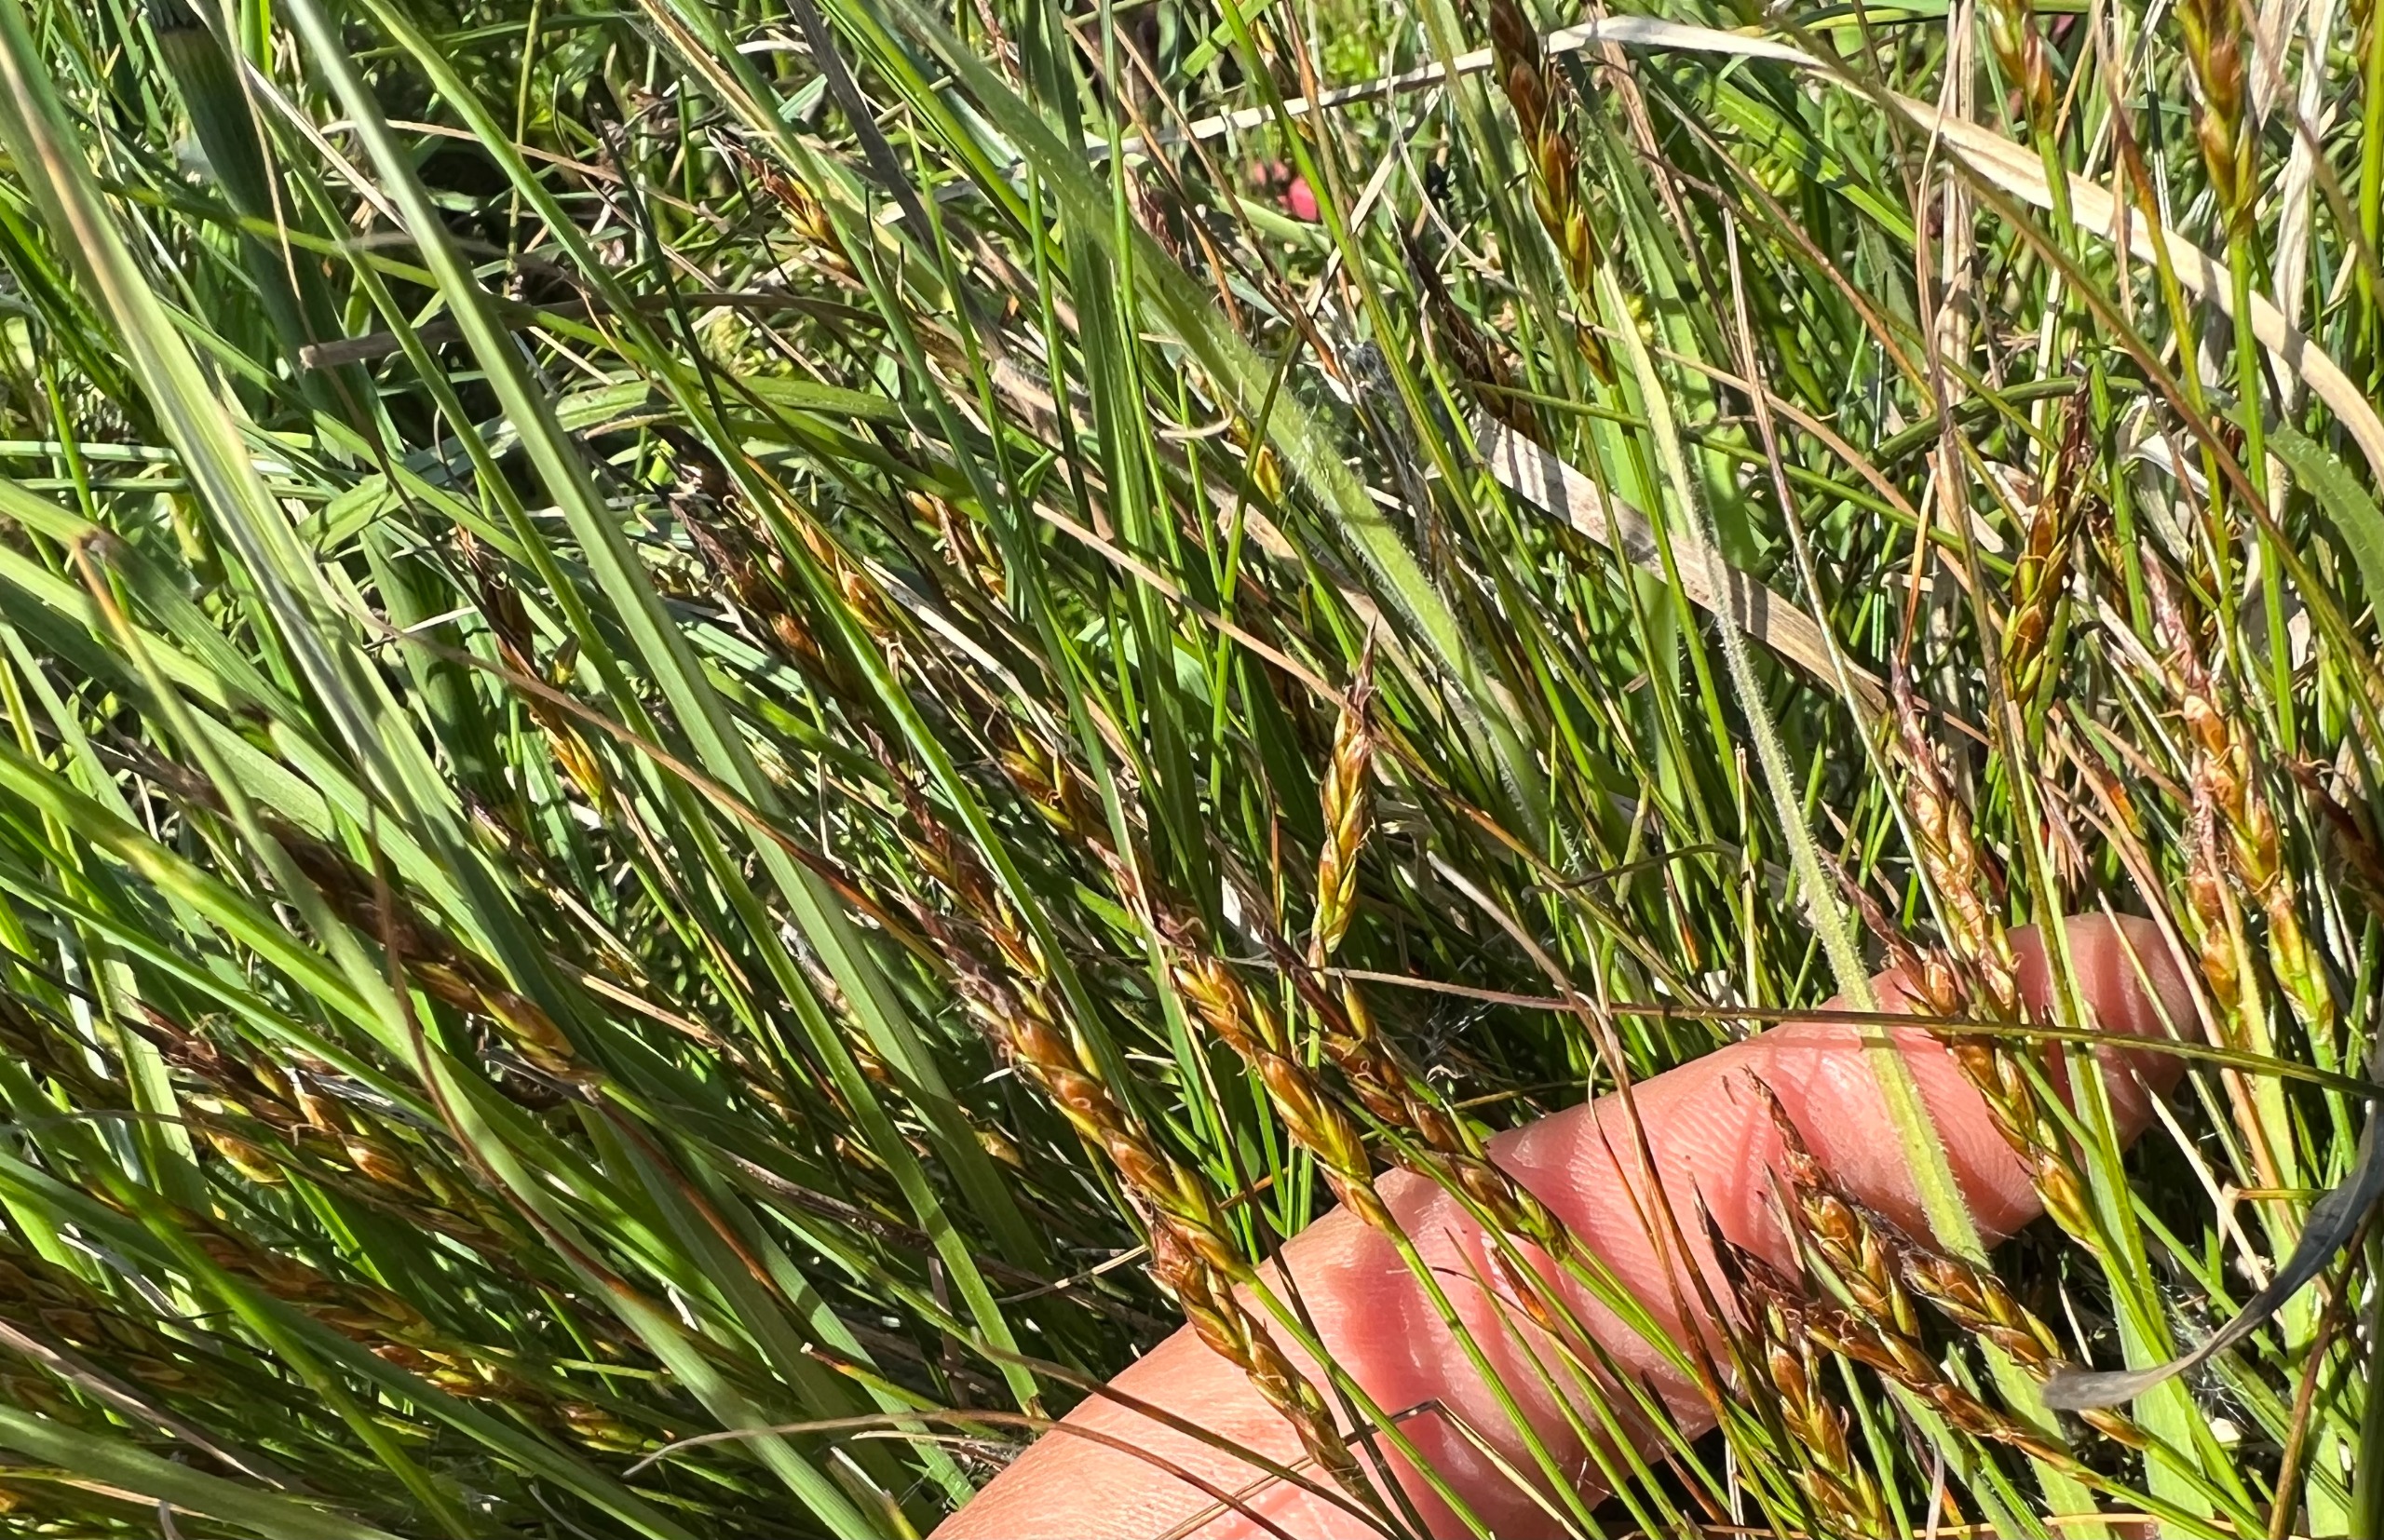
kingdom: Plantae
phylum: Tracheophyta
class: Liliopsida
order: Poales
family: Cyperaceae
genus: Carex
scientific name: Carex pulicaris
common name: Loppe-star
